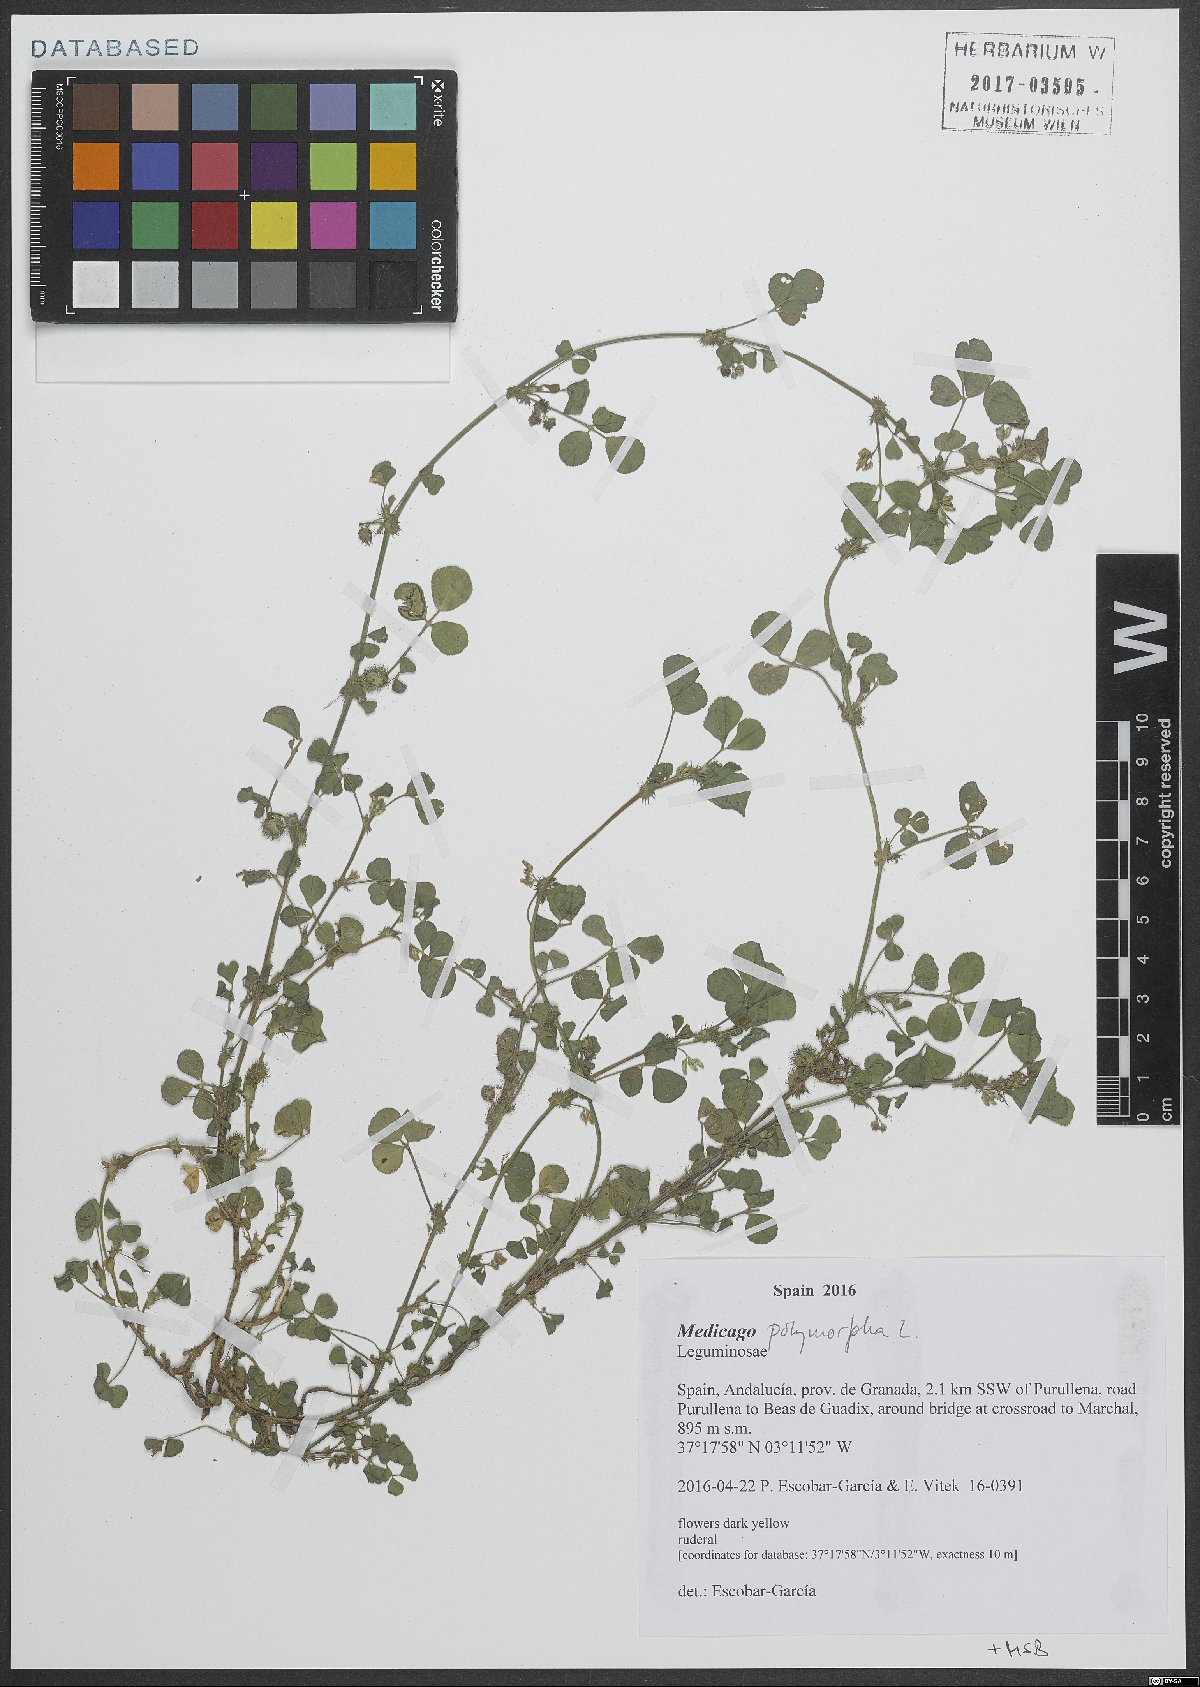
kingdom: Plantae
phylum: Tracheophyta
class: Magnoliopsida
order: Fabales
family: Fabaceae
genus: Medicago
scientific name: Medicago polymorpha
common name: Burclover
